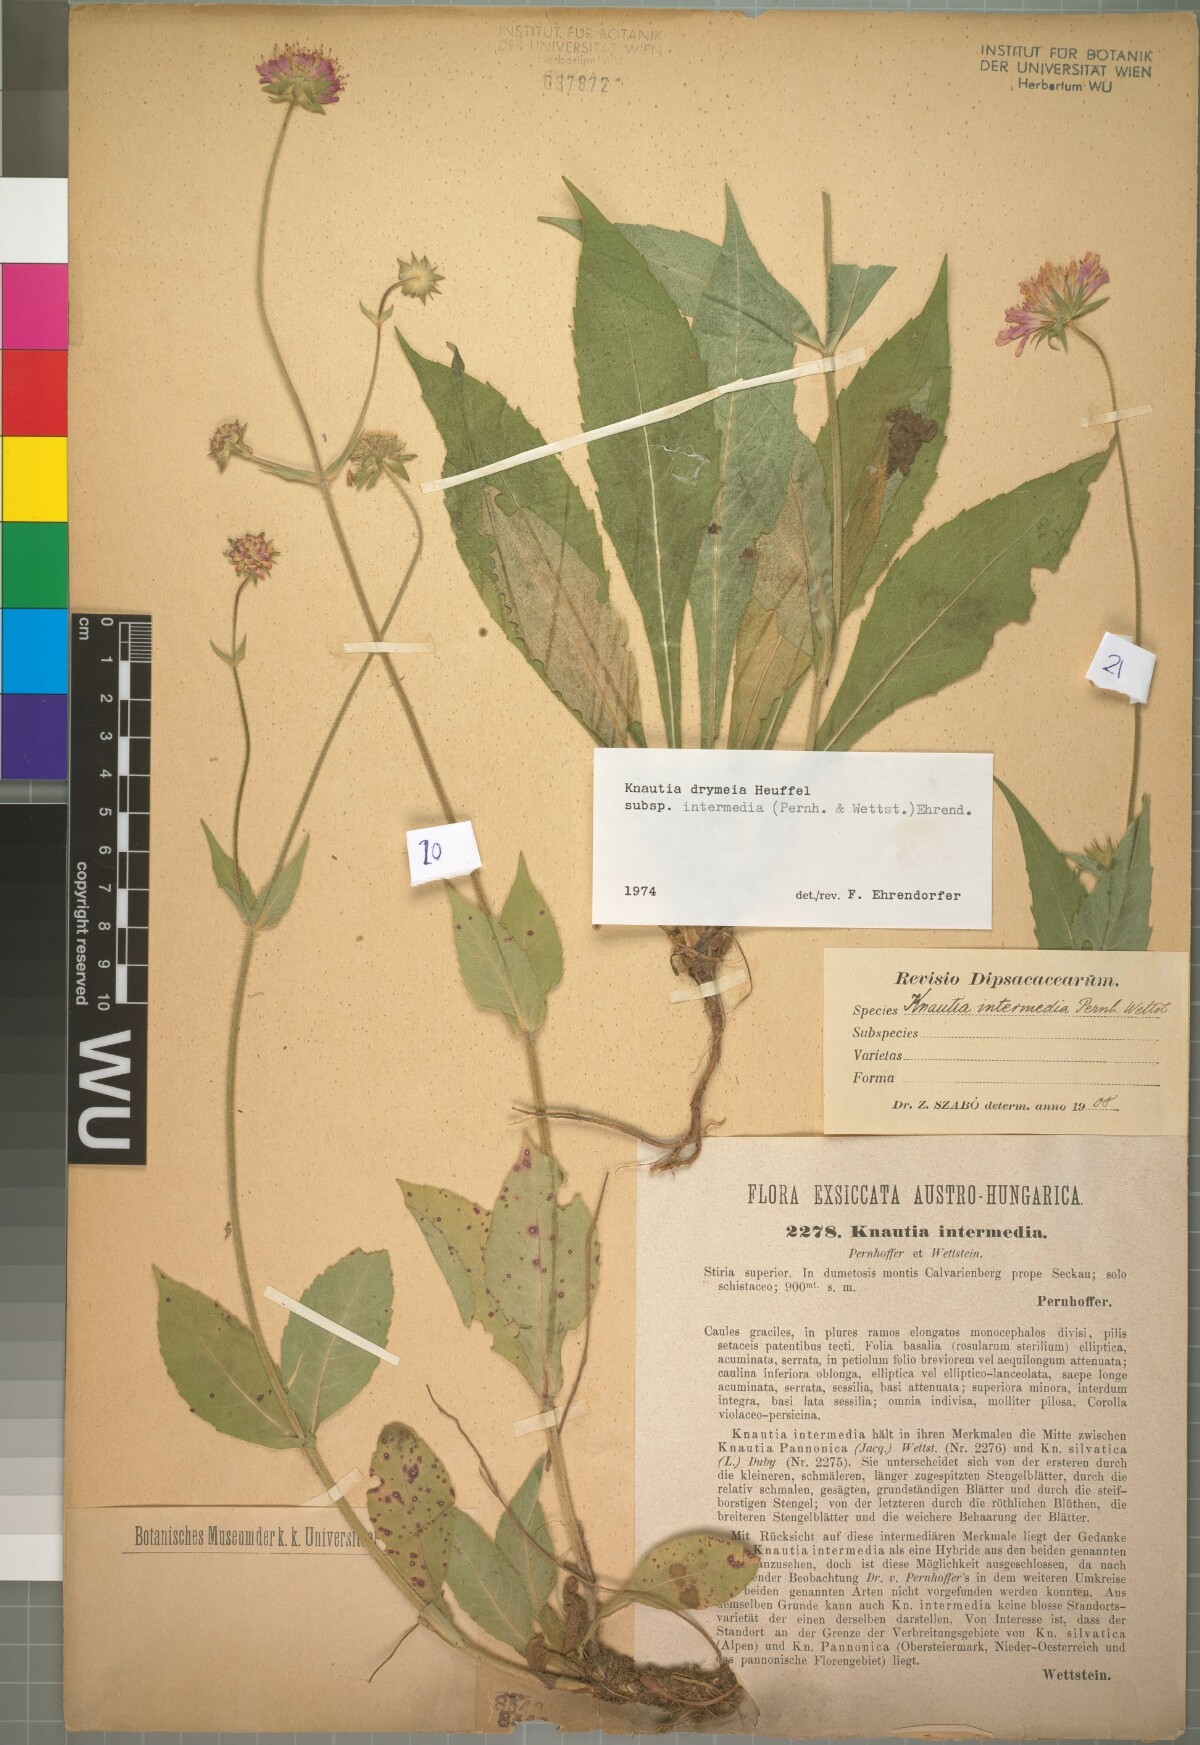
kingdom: Plantae
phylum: Tracheophyta
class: Magnoliopsida
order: Dipsacales
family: Caprifoliaceae
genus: Knautia
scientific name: Knautia drymeia
